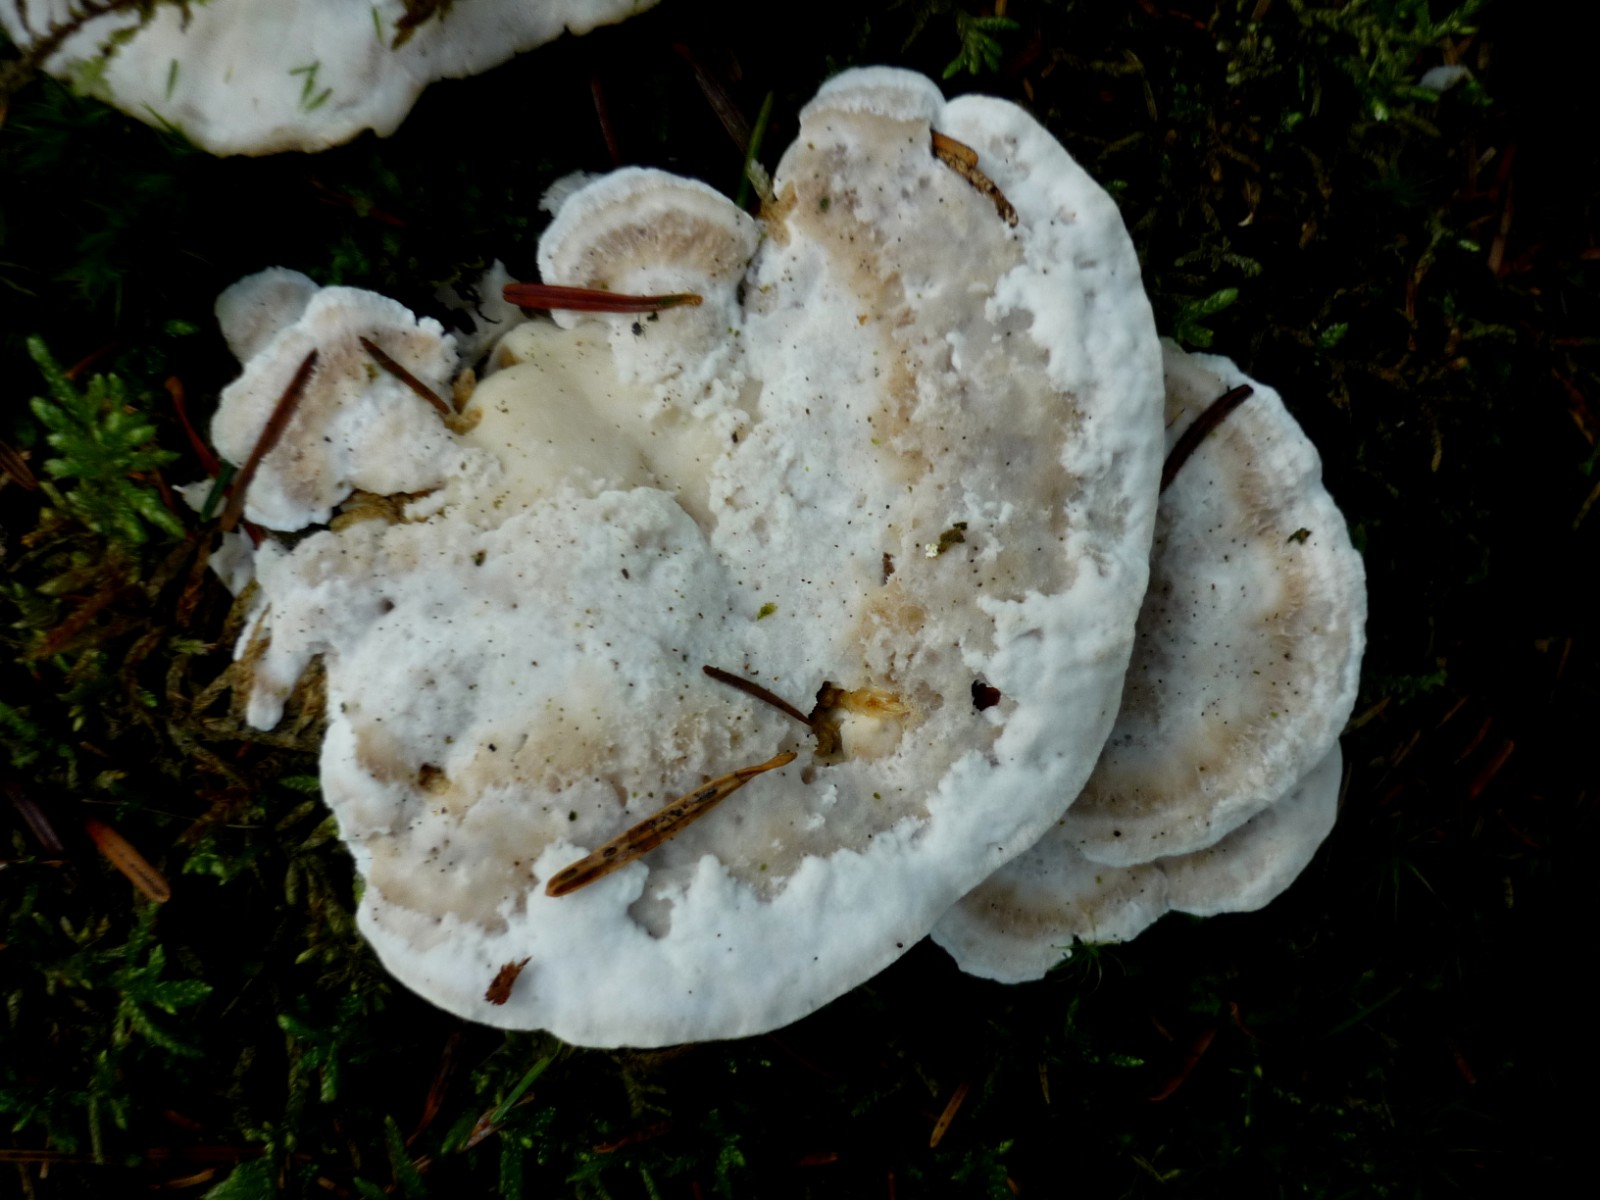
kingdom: Fungi
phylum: Basidiomycota
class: Agaricomycetes
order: Polyporales
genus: Calcipostia
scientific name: Calcipostia guttulata
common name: dråbe-kødporesvamp
